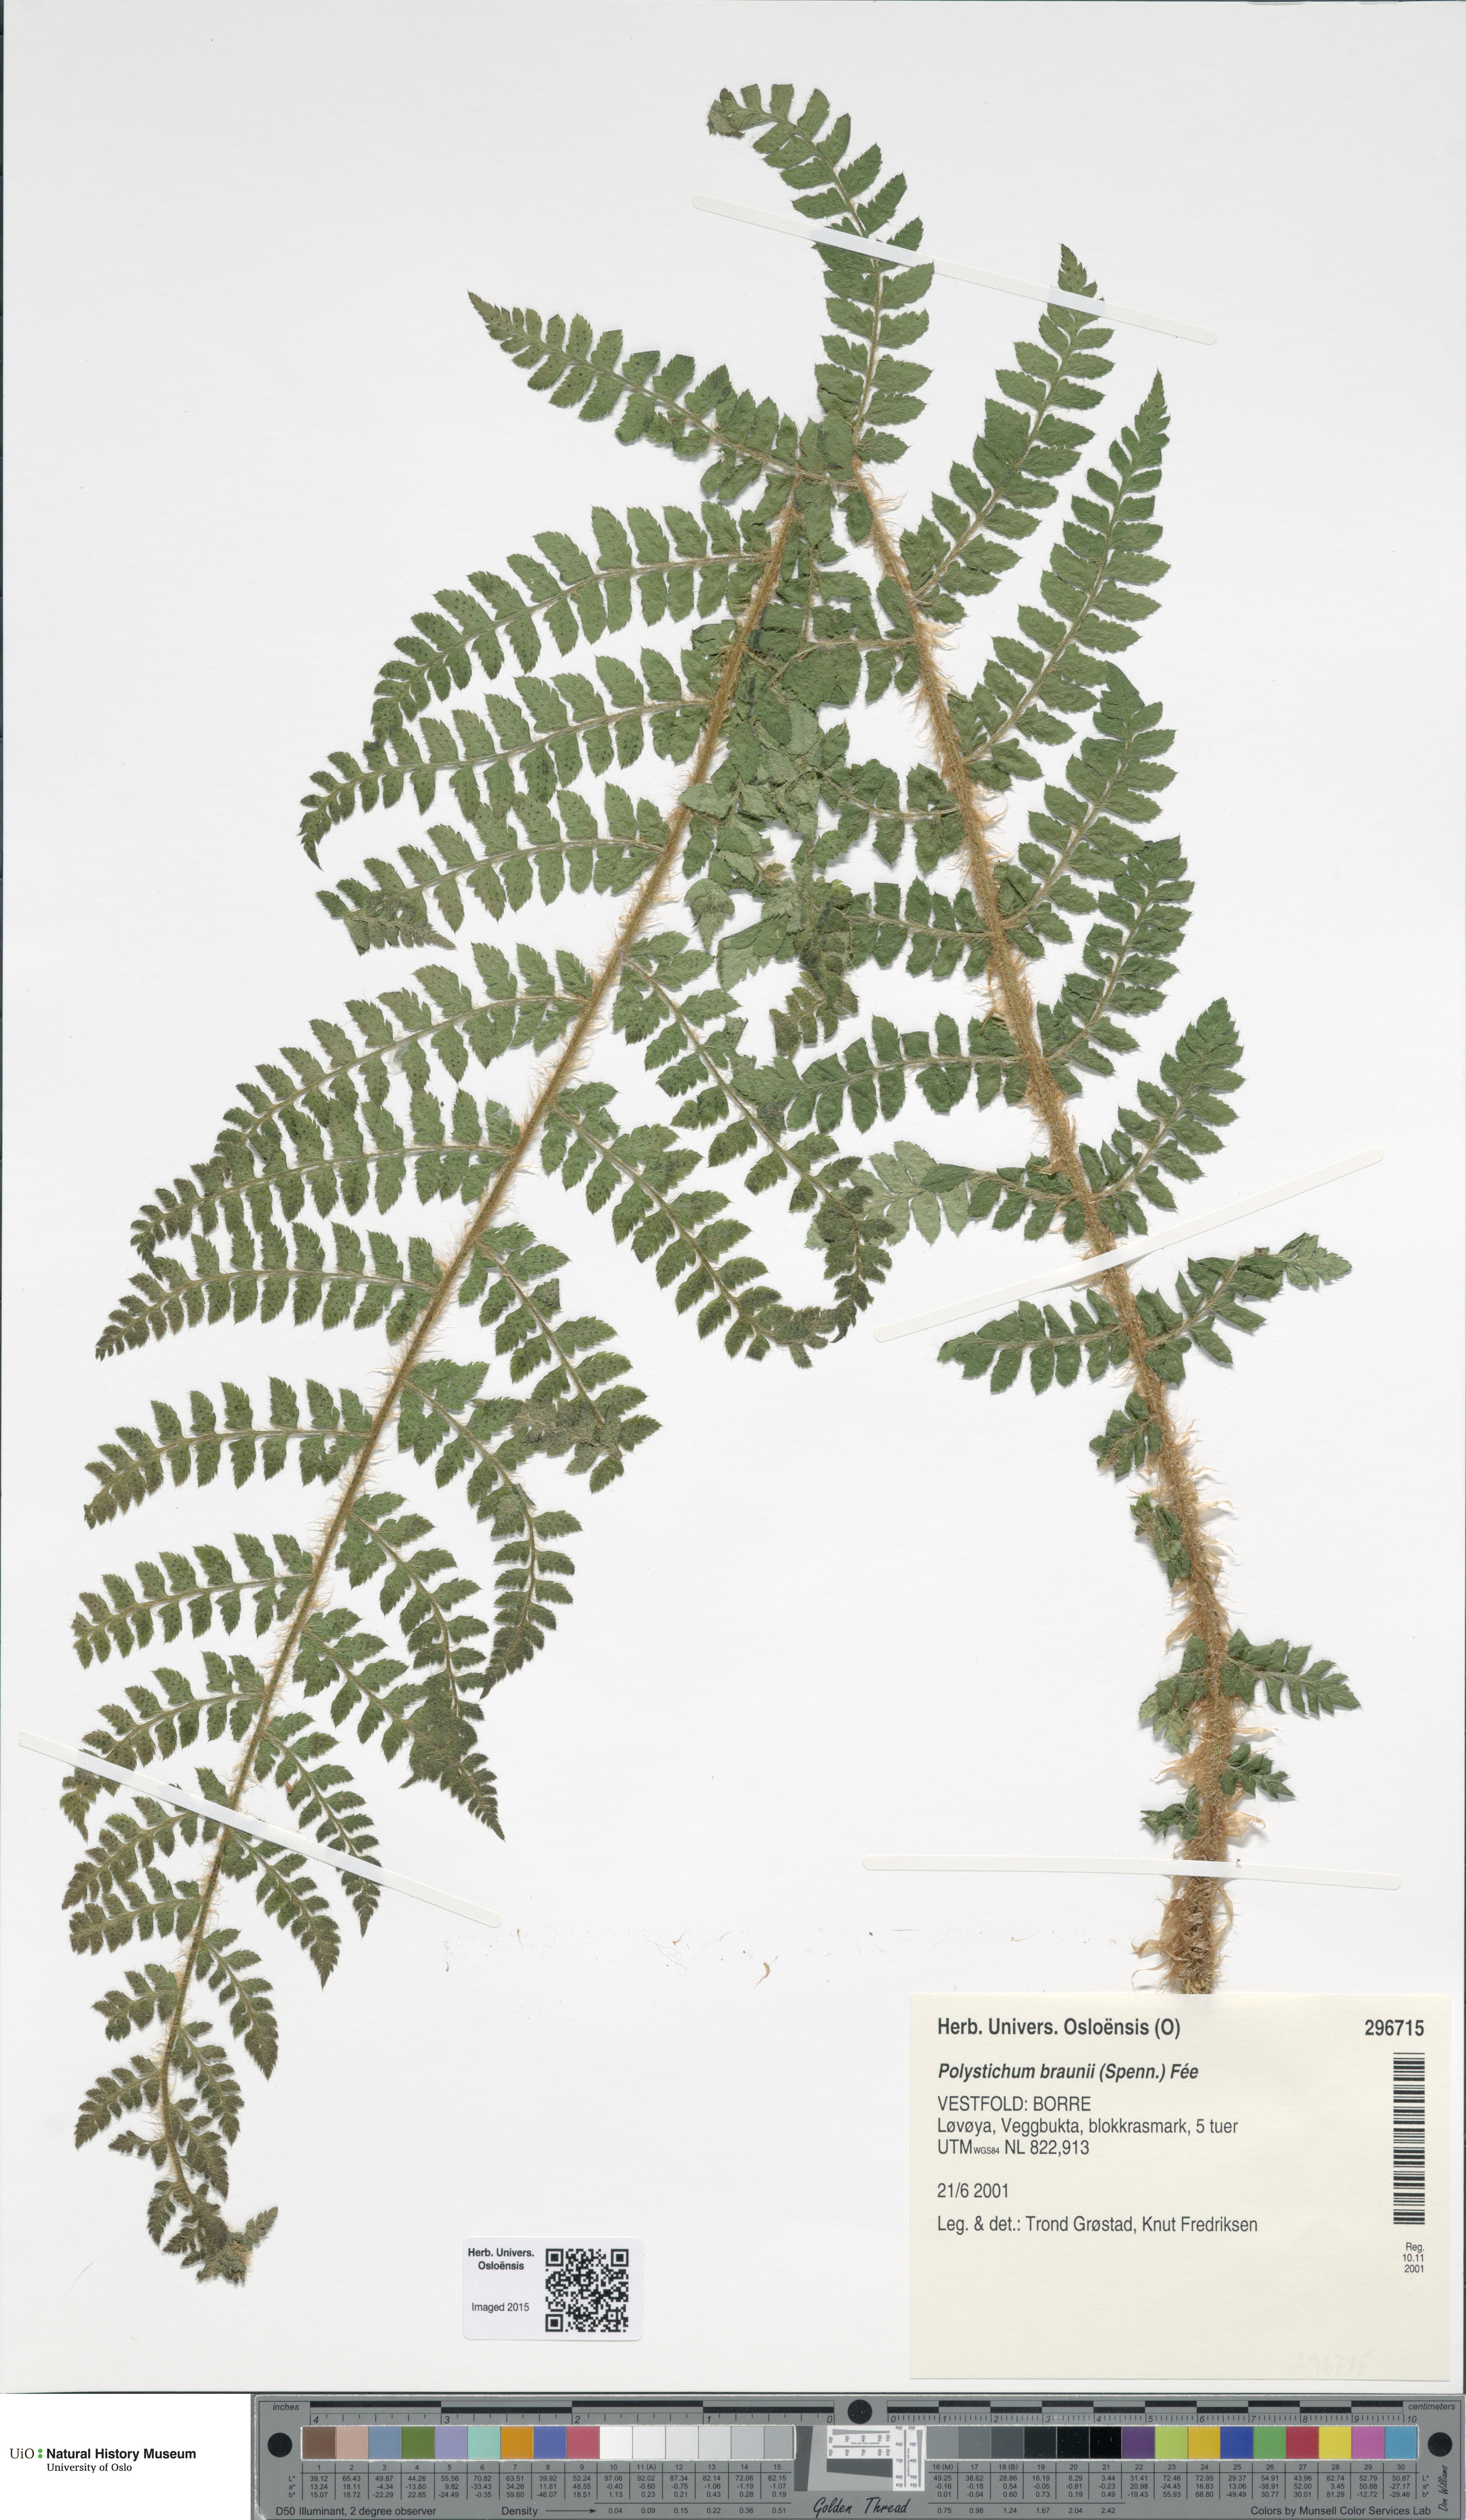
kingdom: Plantae
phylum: Tracheophyta
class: Polypodiopsida
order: Polypodiales
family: Dryopteridaceae
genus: Polystichum
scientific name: Polystichum braunii
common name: Braun's holly fern
